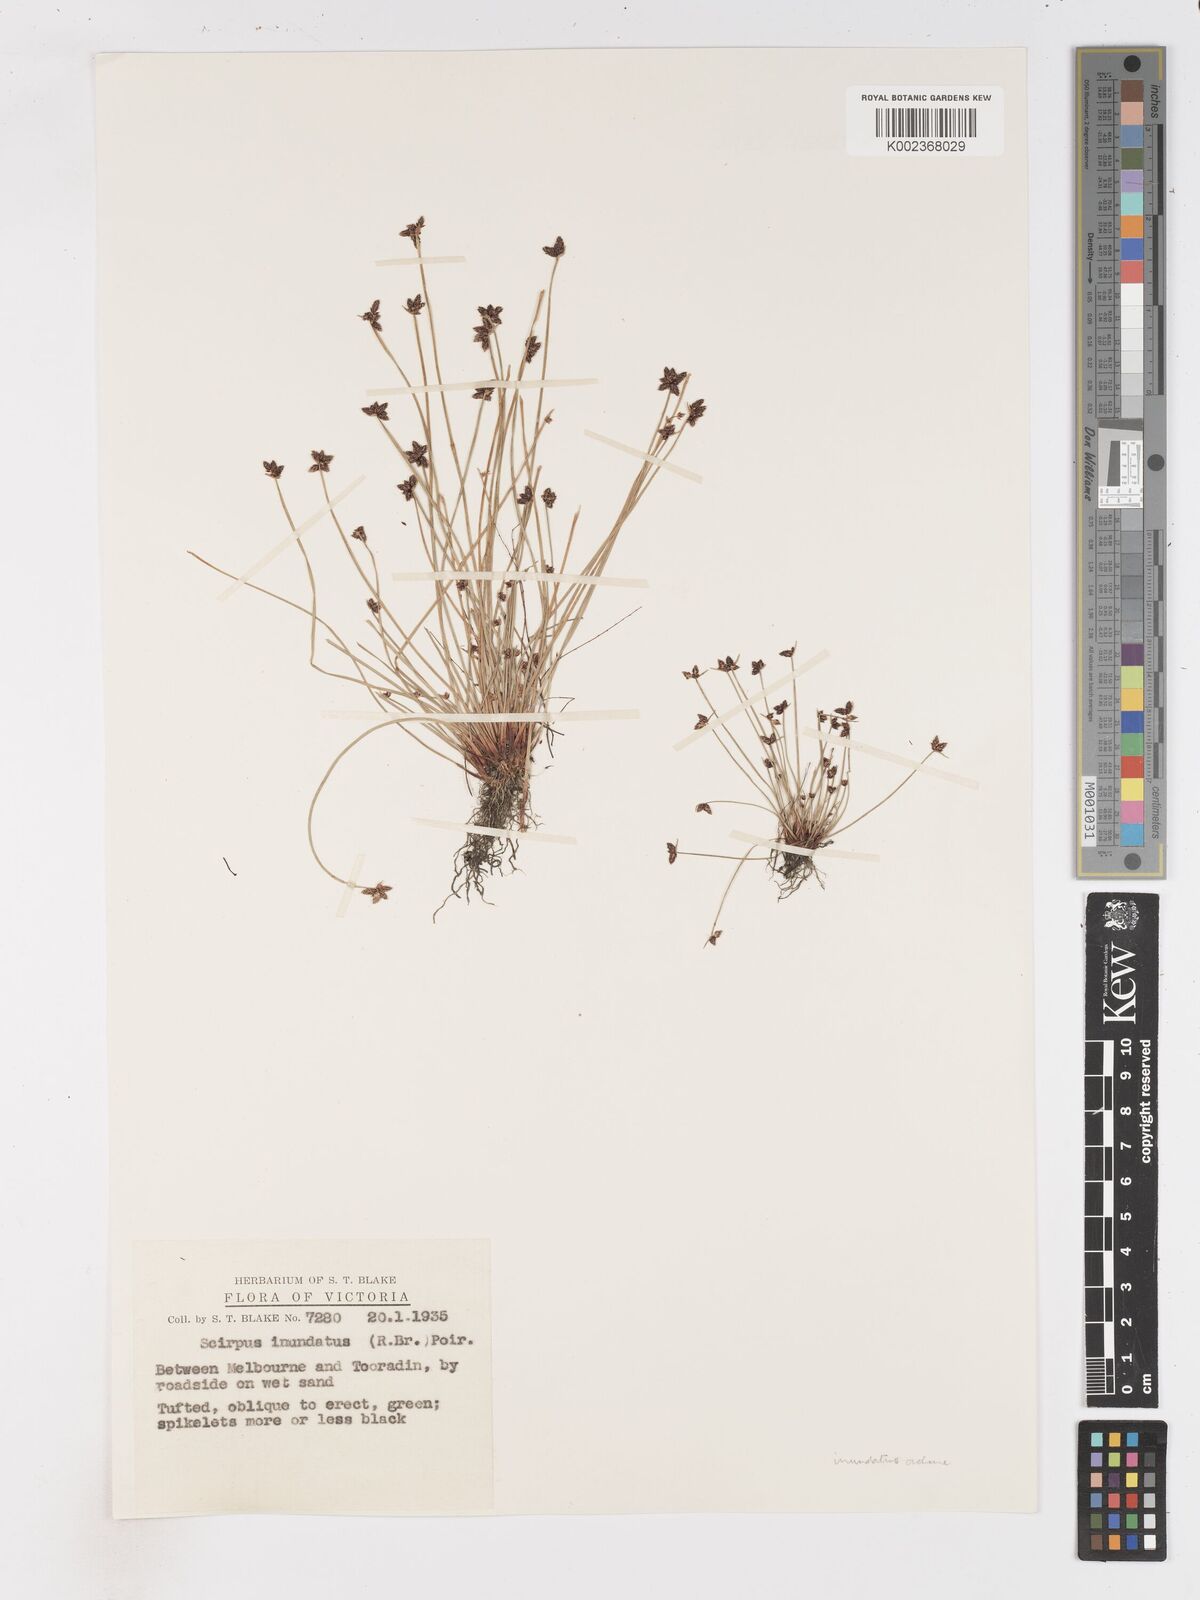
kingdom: Plantae
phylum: Tracheophyta
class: Liliopsida
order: Poales
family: Cyperaceae
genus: Isolepis
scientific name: Isolepis inundata
